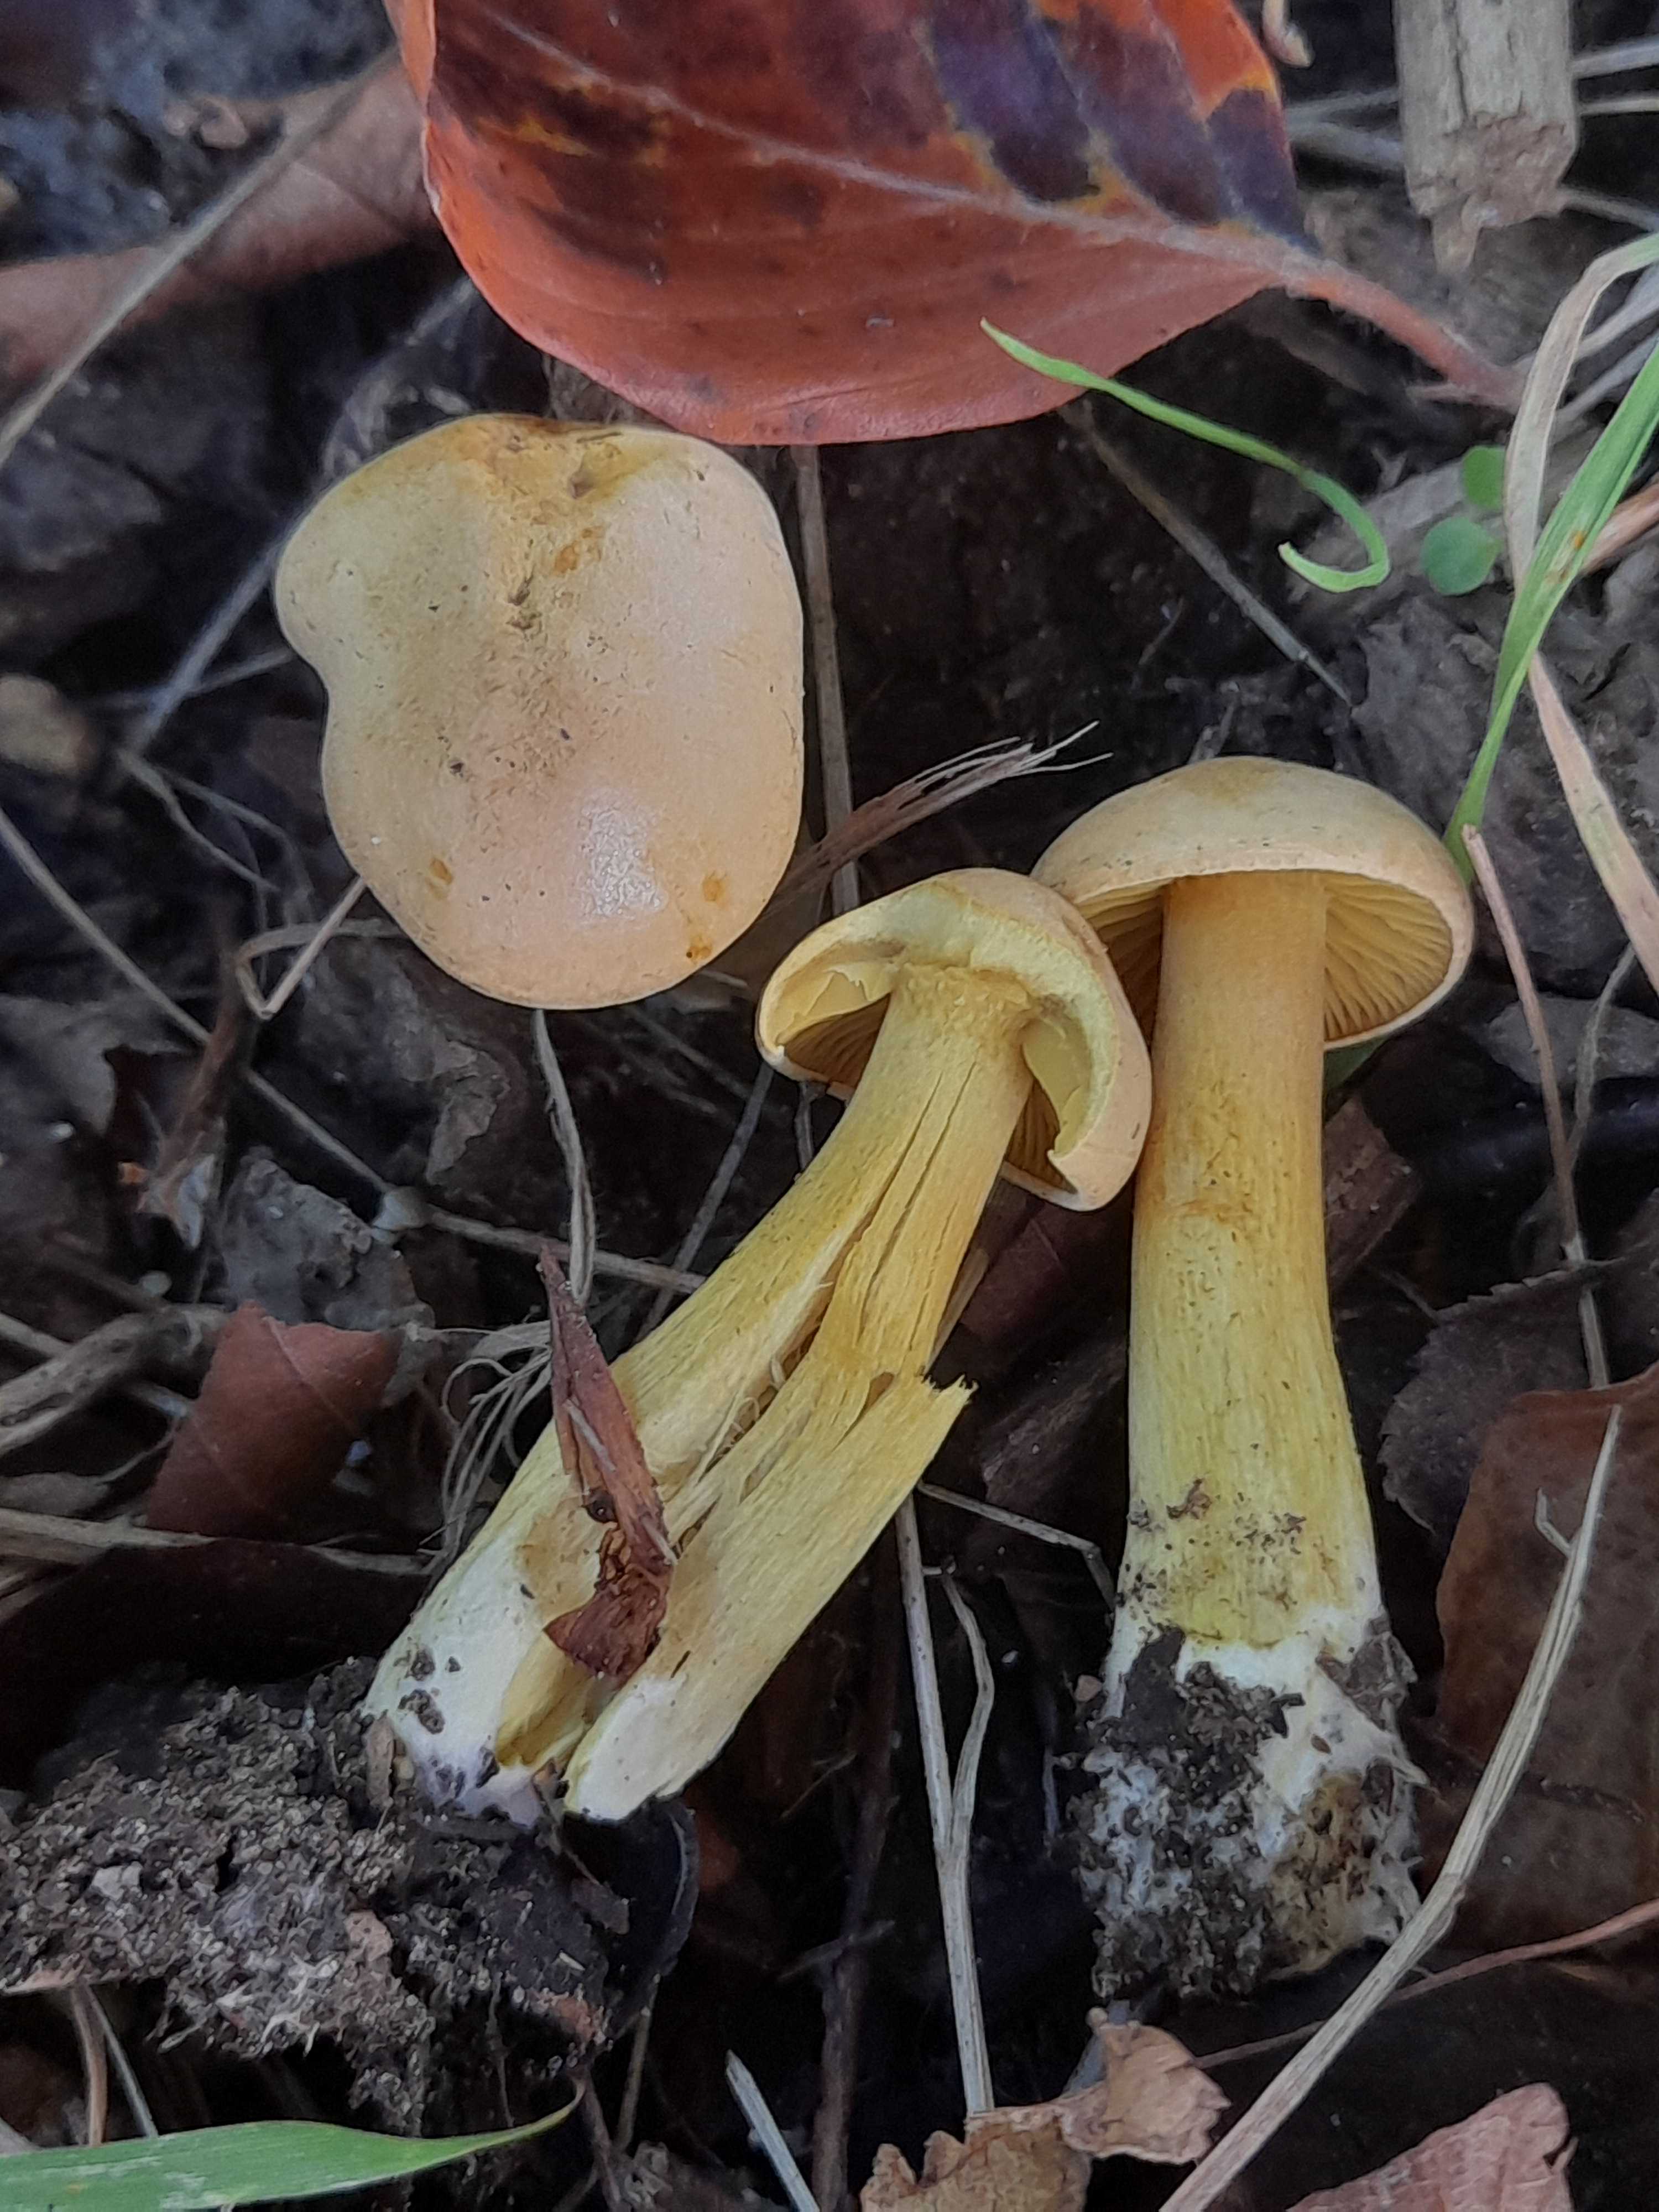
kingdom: Fungi
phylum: Basidiomycota
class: Agaricomycetes
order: Agaricales
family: Tricholomataceae
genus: Tricholoma
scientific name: Tricholoma sulphureum
